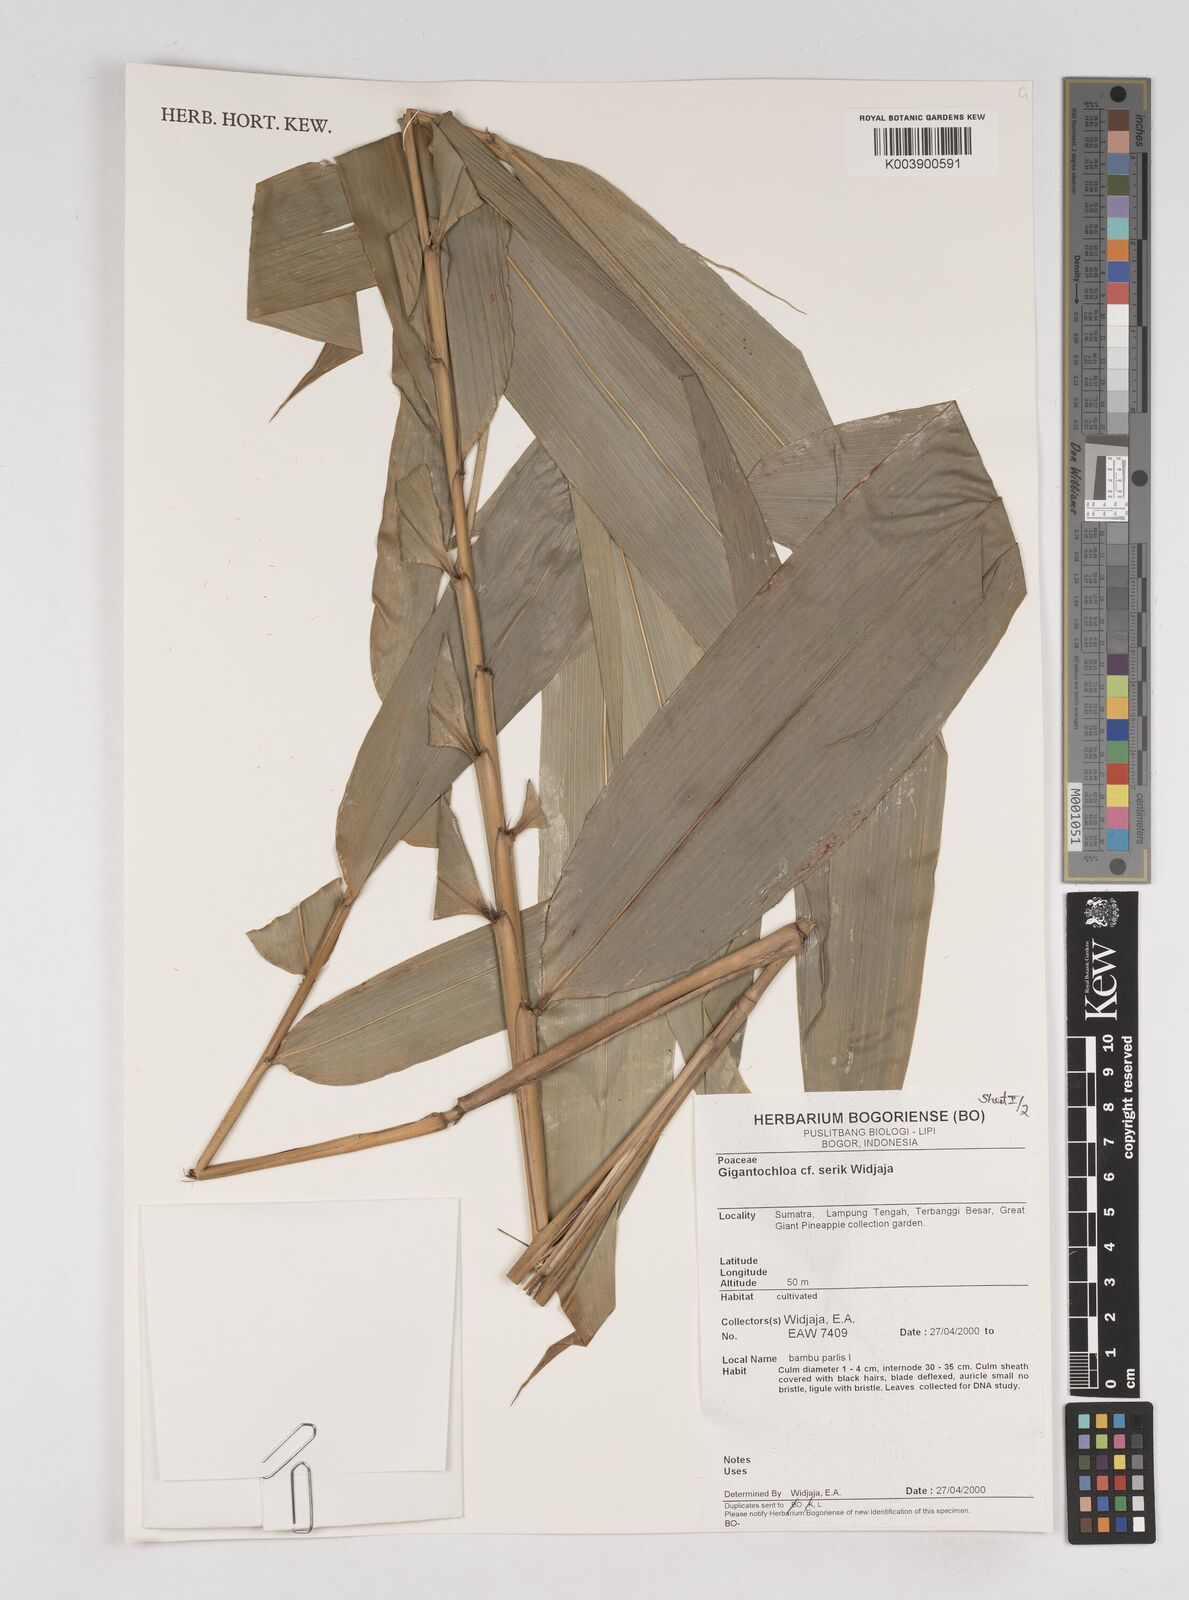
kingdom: Plantae
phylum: Tracheophyta
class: Liliopsida
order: Poales
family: Poaceae
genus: Gigantochloa
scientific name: Gigantochloa serik
